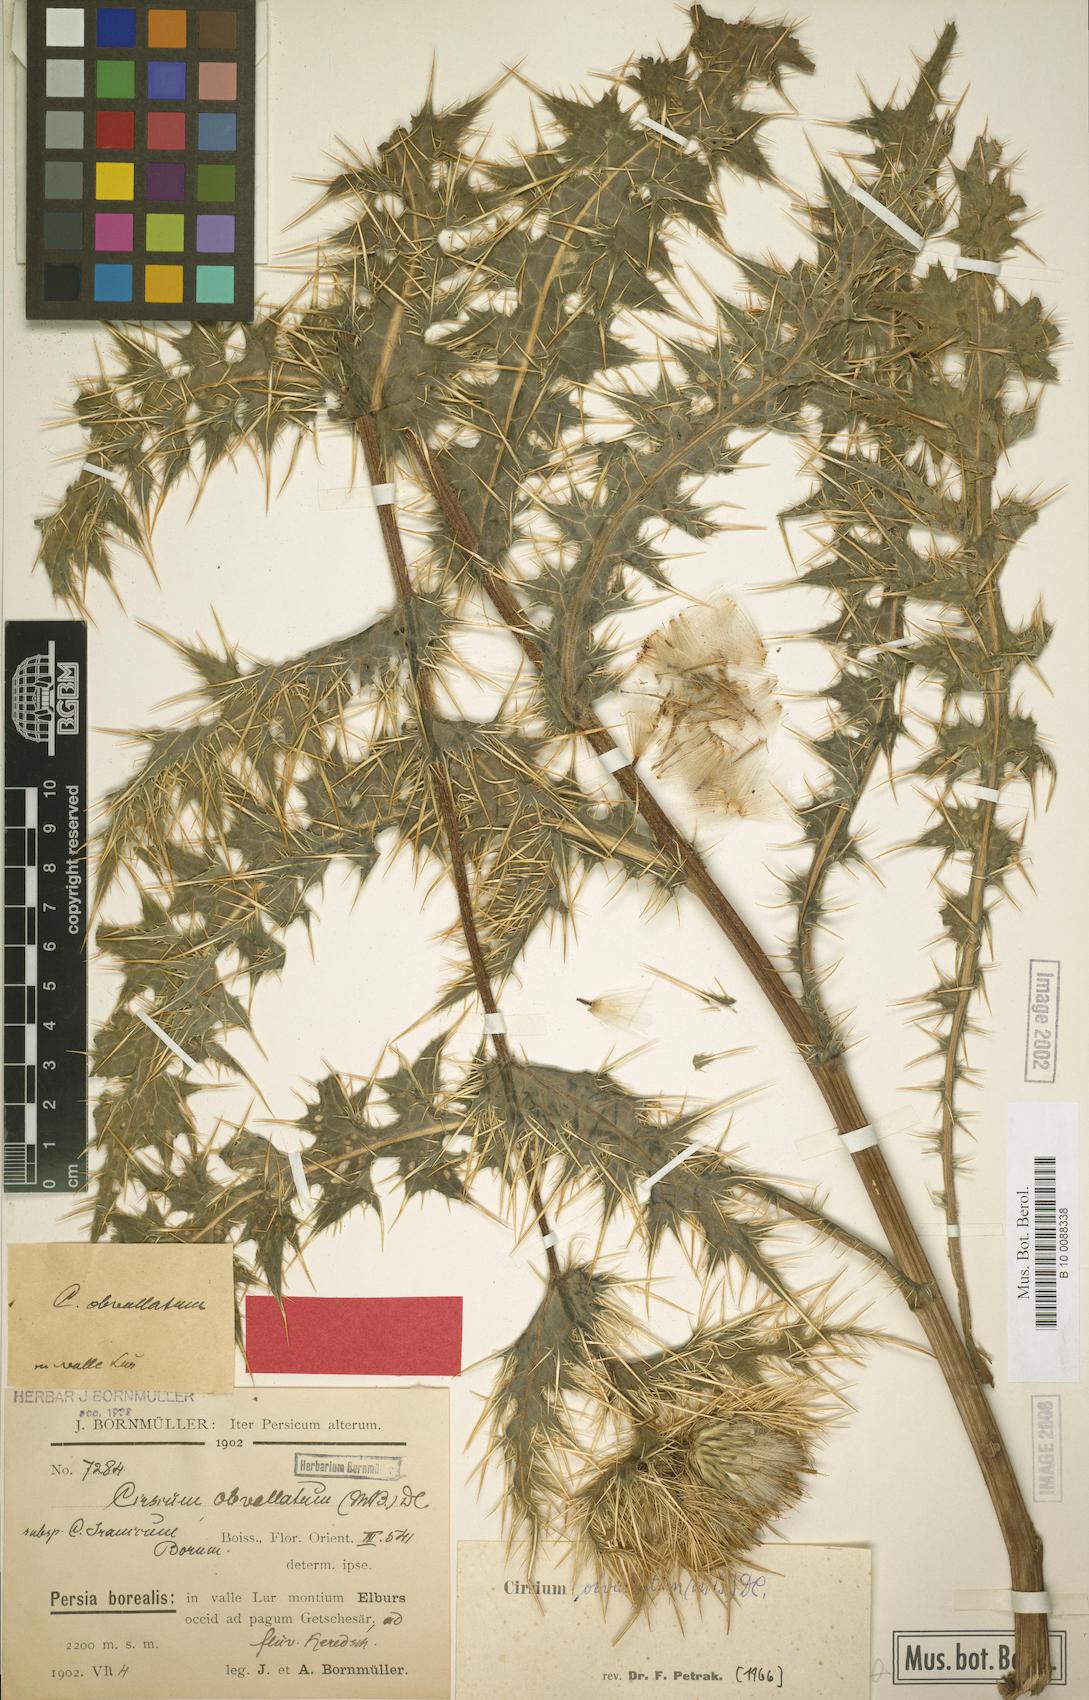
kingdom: Plantae
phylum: Tracheophyta
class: Magnoliopsida
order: Asterales
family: Asteraceae
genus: Cirsium
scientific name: Cirsium obvallatum
